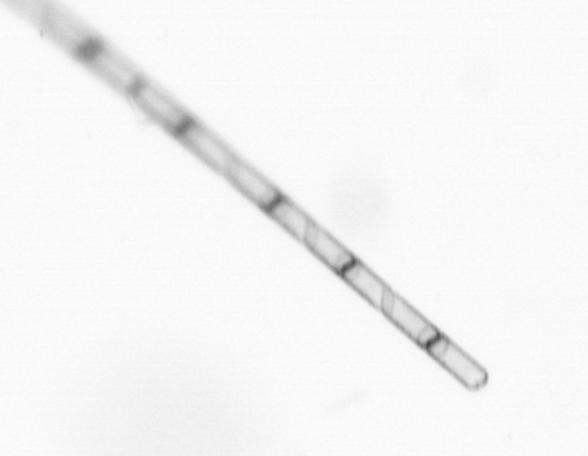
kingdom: Chromista
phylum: Ochrophyta
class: Bacillariophyceae
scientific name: Bacillariophyceae
